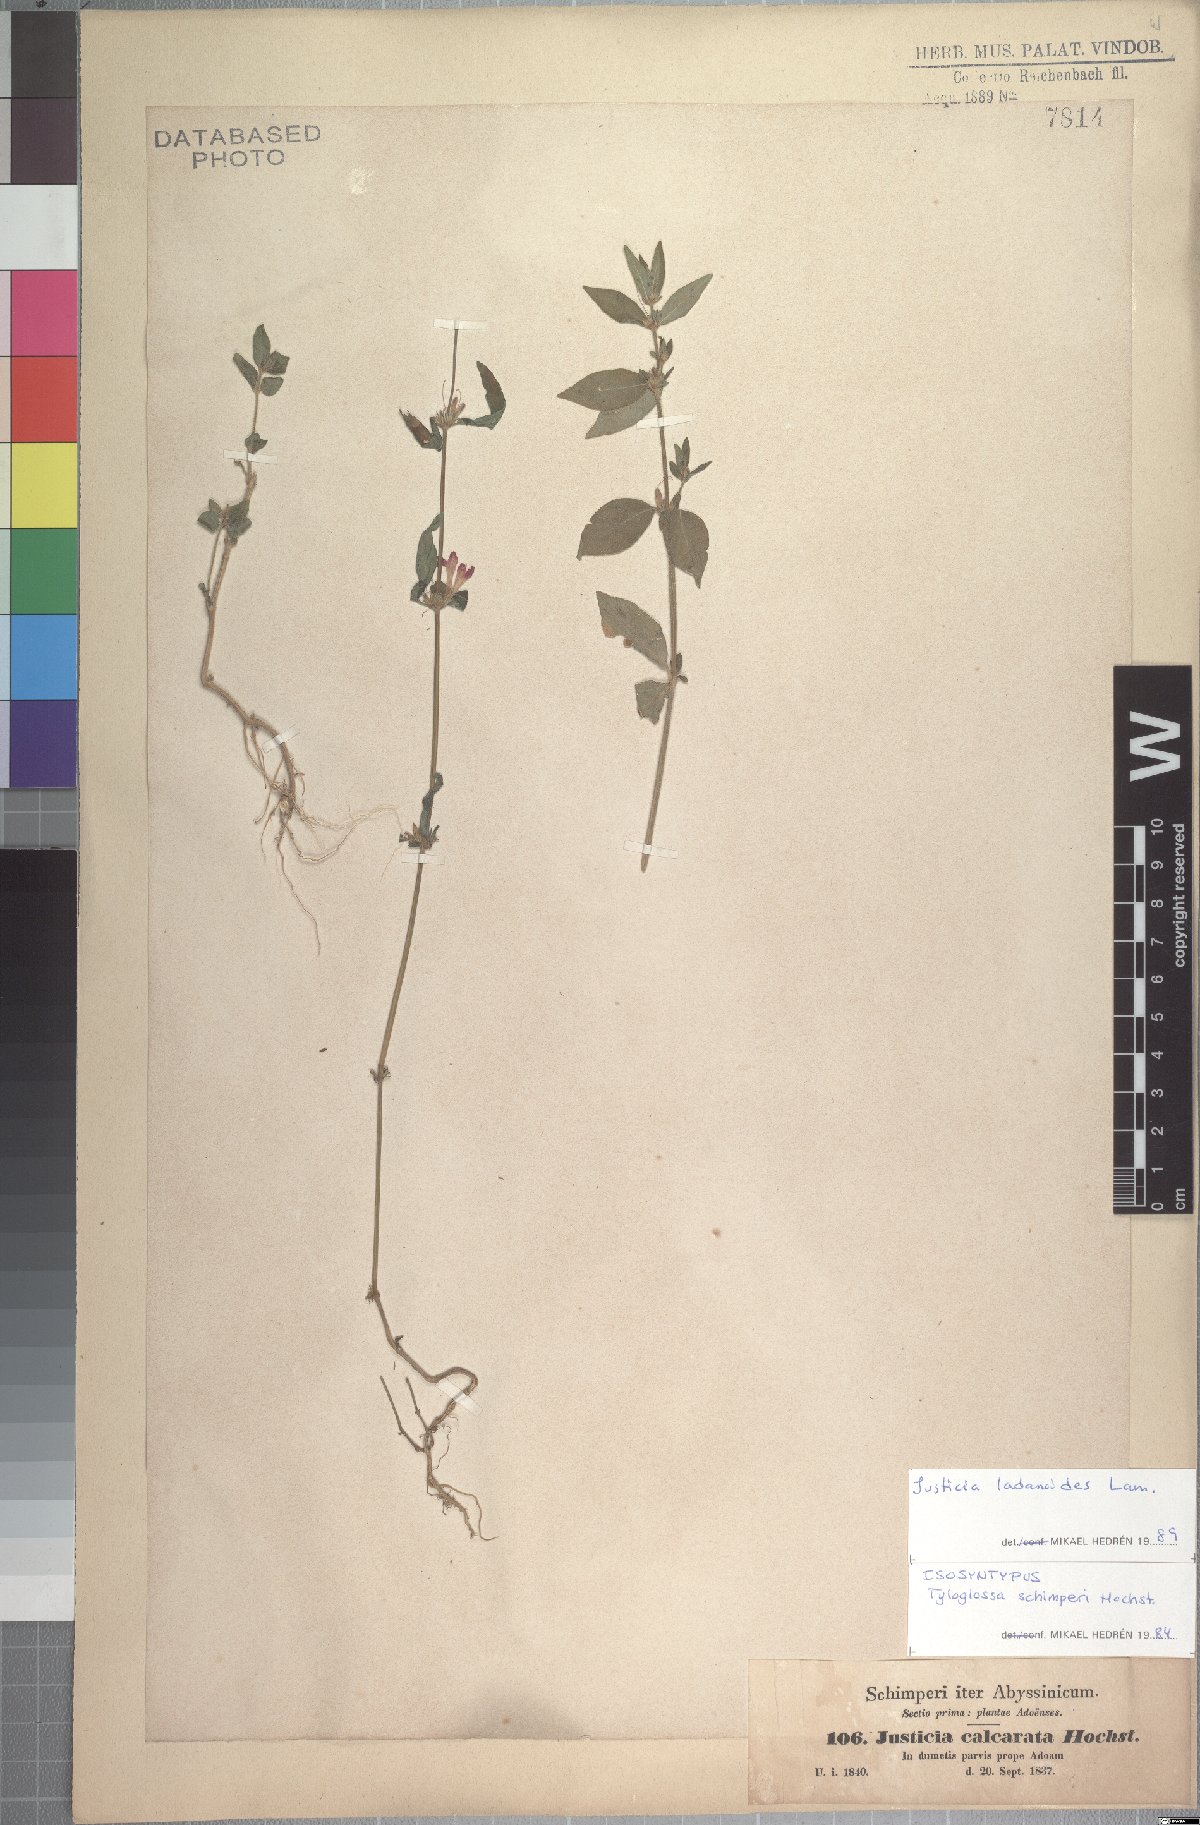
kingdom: Plantae
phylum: Tracheophyta
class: Magnoliopsida
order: Lamiales
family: Acanthaceae
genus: Justicia
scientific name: Justicia ladanoides
